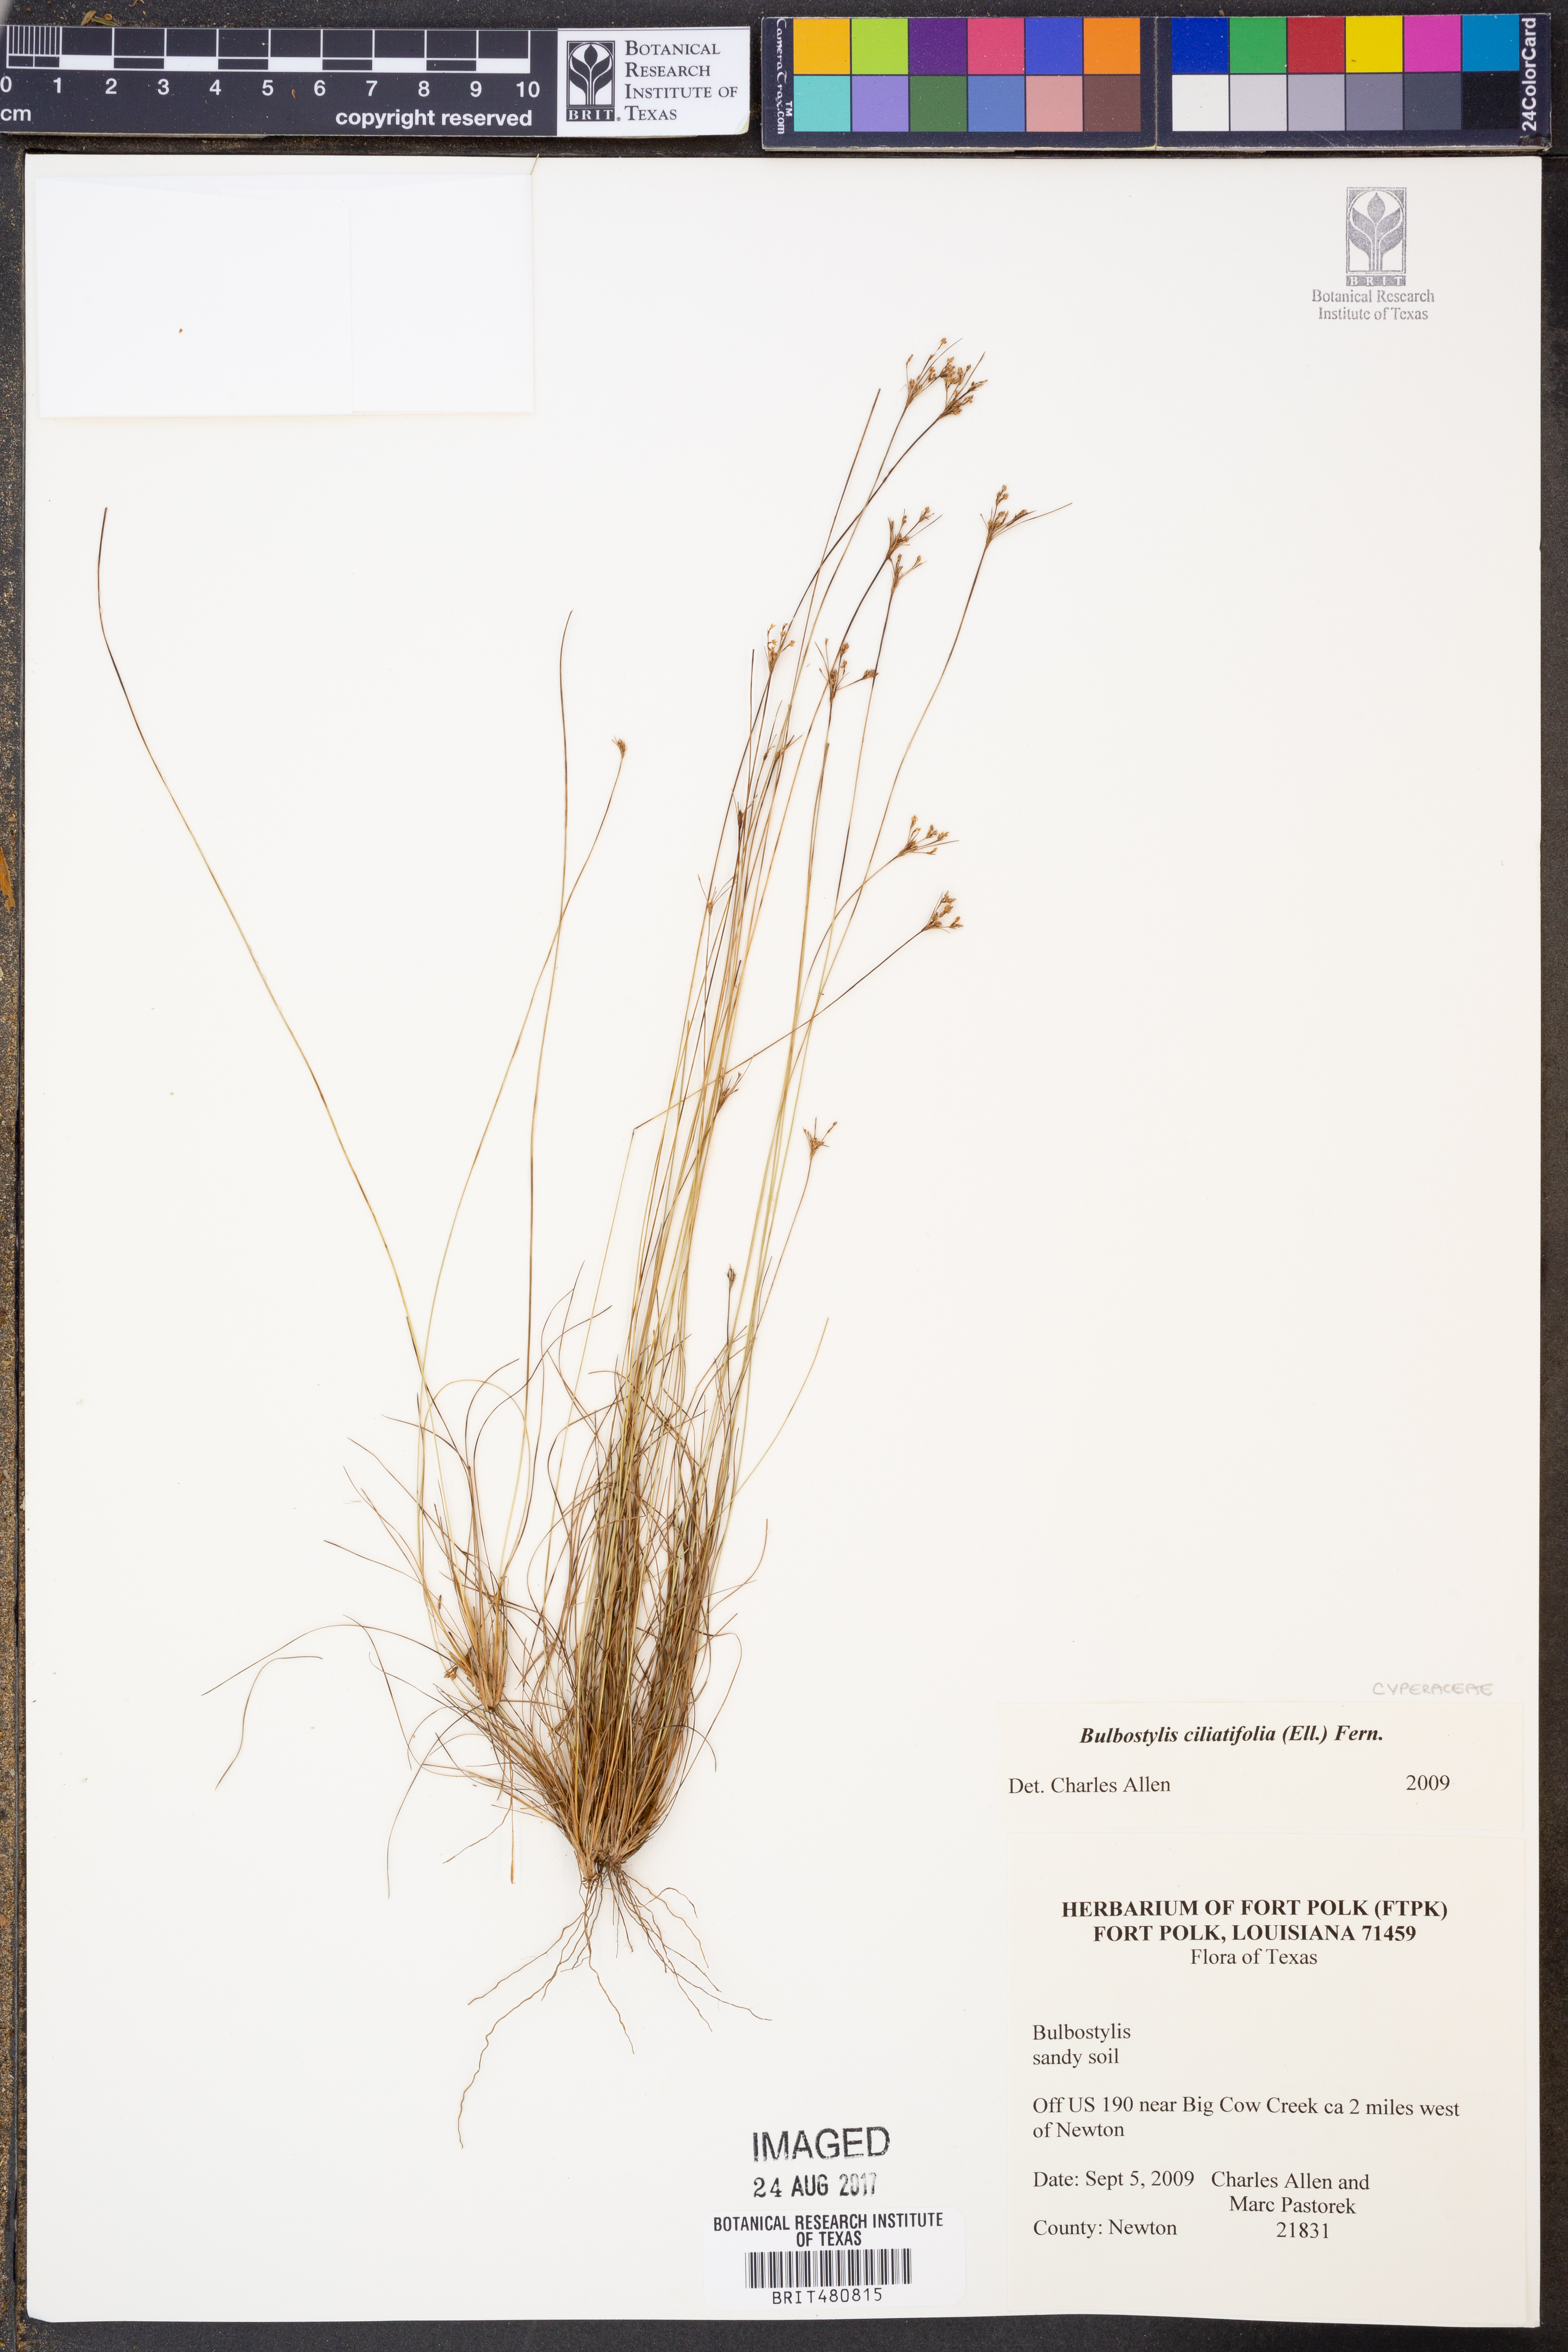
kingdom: Plantae
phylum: Tracheophyta
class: Liliopsida
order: Poales
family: Cyperaceae
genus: Bulbostylis
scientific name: Bulbostylis ciliatifolia
